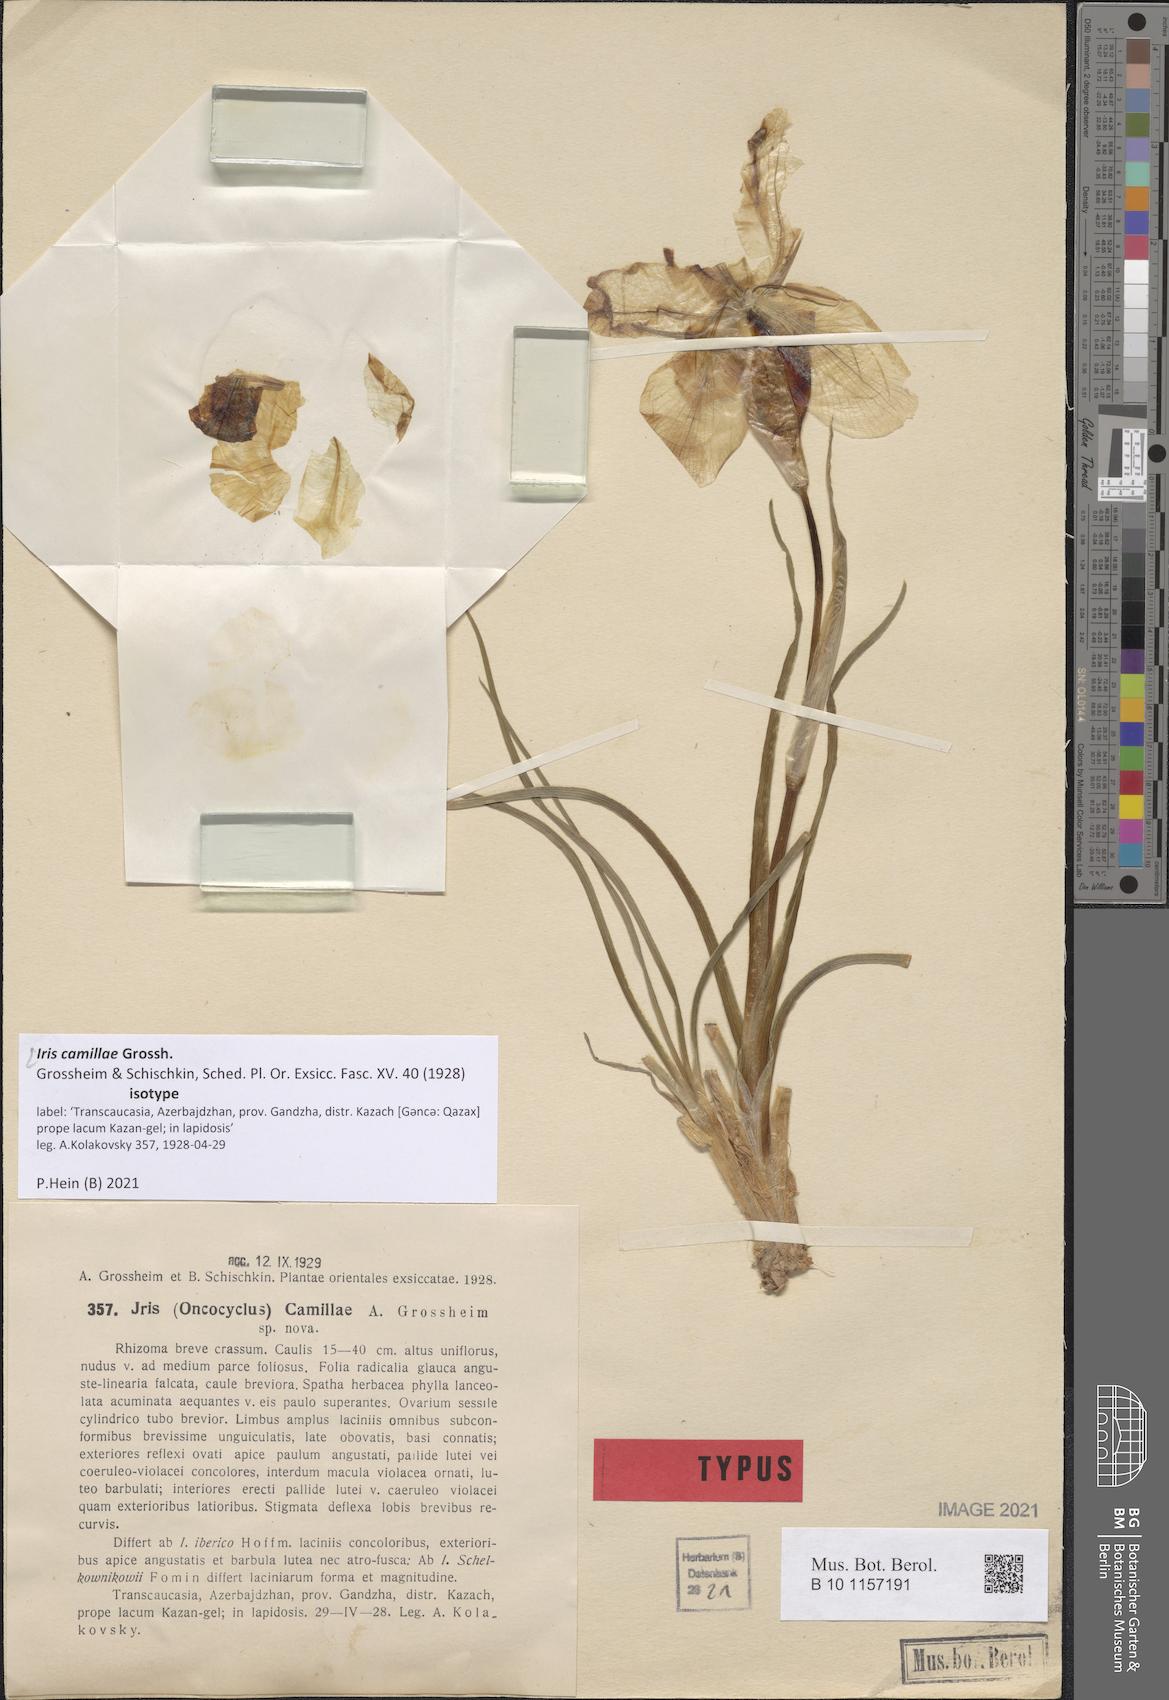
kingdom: Plantae
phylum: Tracheophyta
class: Liliopsida
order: Asparagales
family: Iridaceae
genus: Iris
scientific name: Iris camillae
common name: Kamilla's iris
